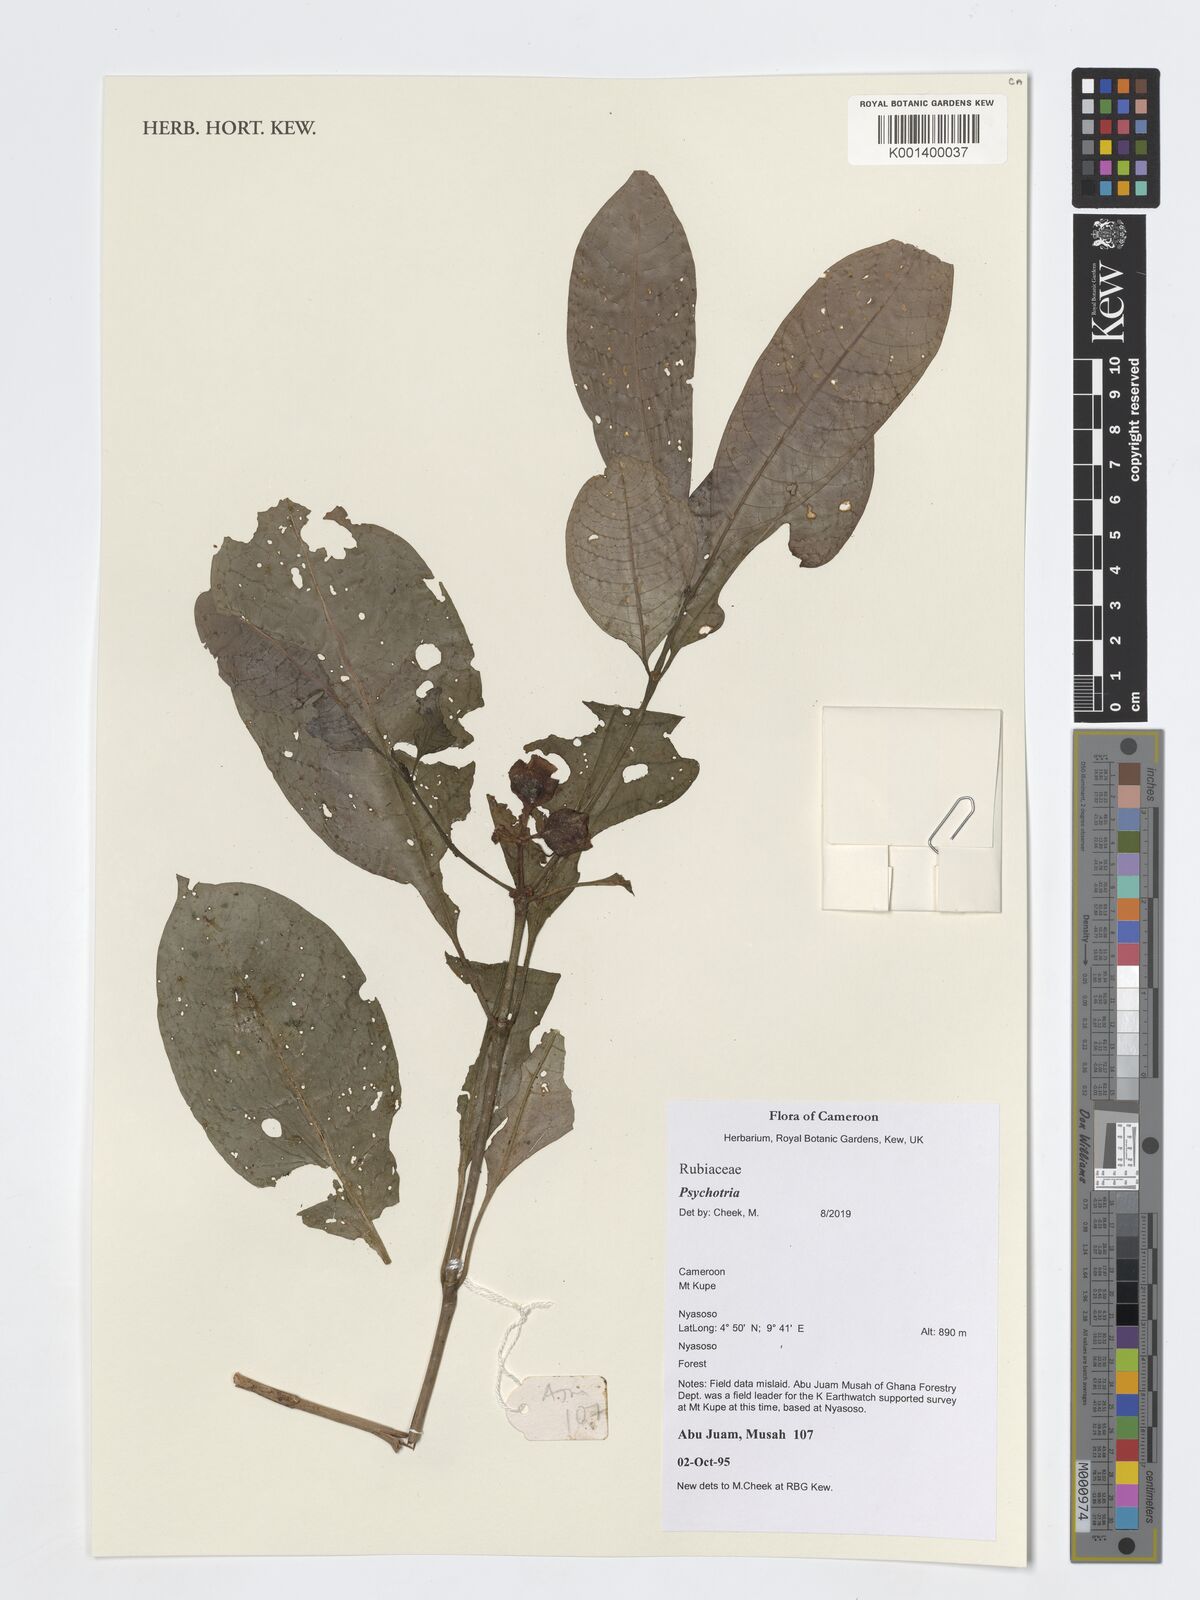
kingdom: Plantae
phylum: Tracheophyta
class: Magnoliopsida
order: Gentianales
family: Rubiaceae
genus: Psychotria
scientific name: Psychotria
